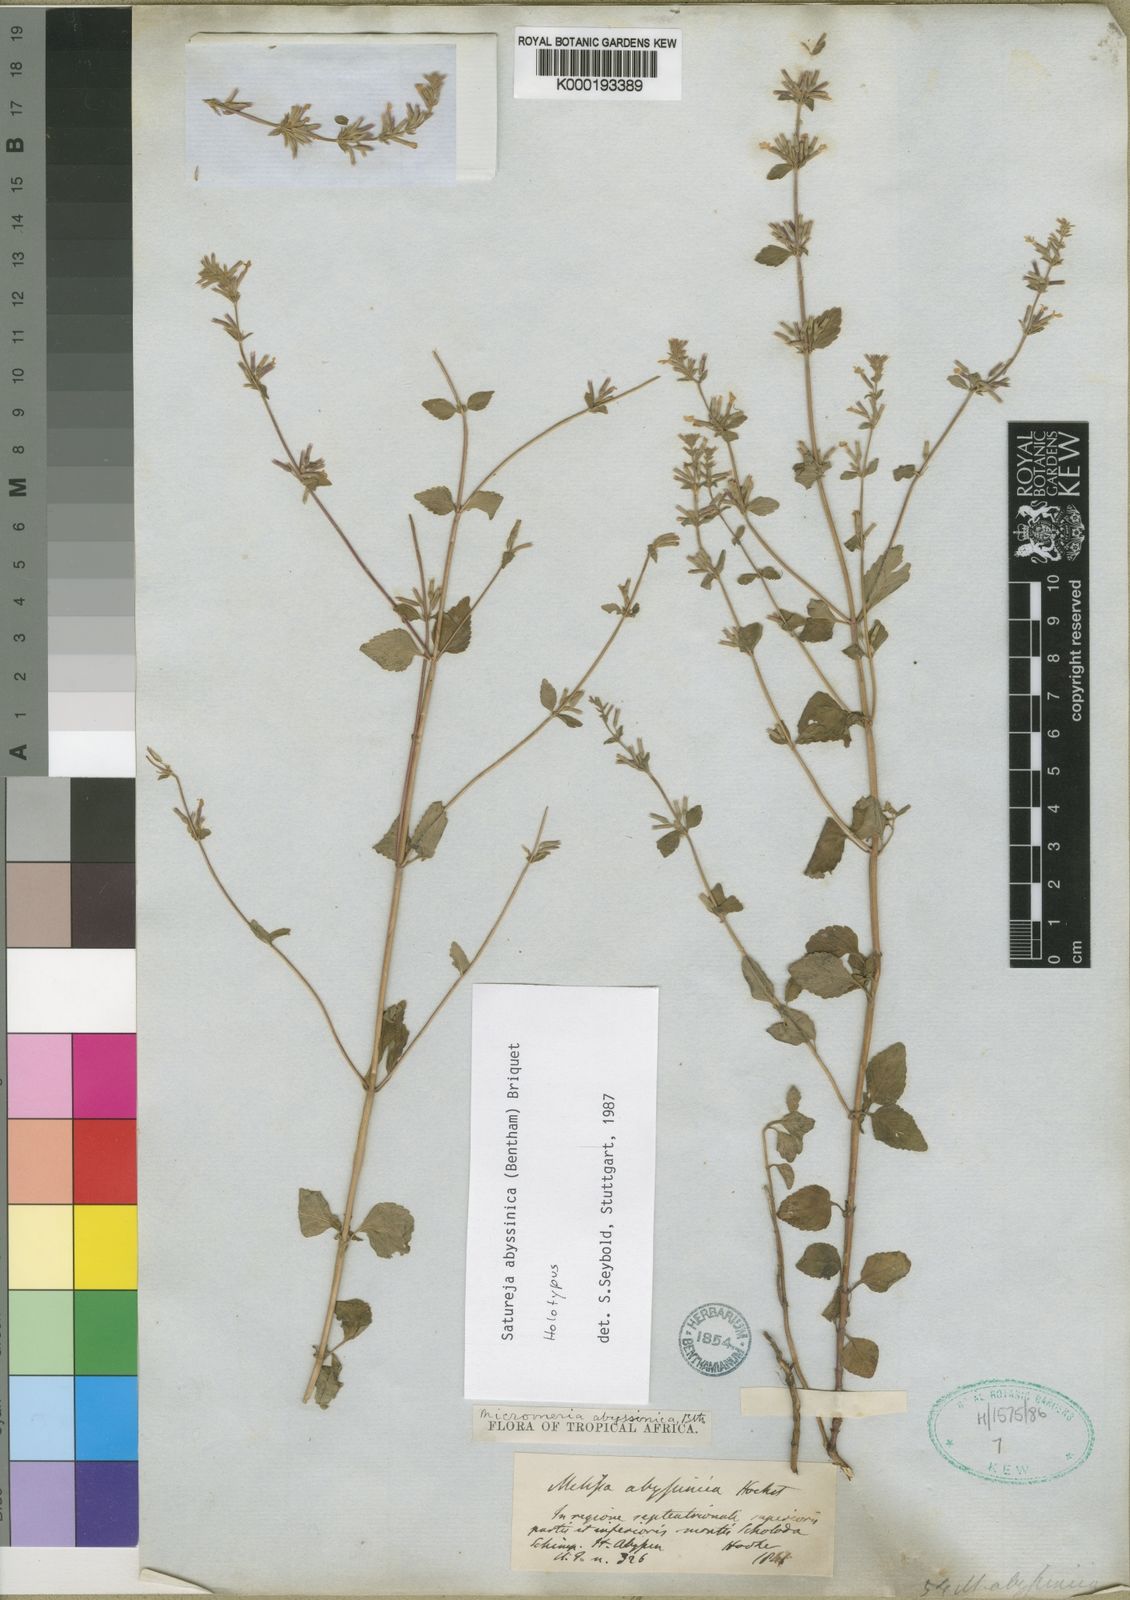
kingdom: Plantae
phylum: Tracheophyta
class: Magnoliopsida
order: Lamiales
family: Lamiaceae
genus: Clinopodium
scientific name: Clinopodium abyssinicum
